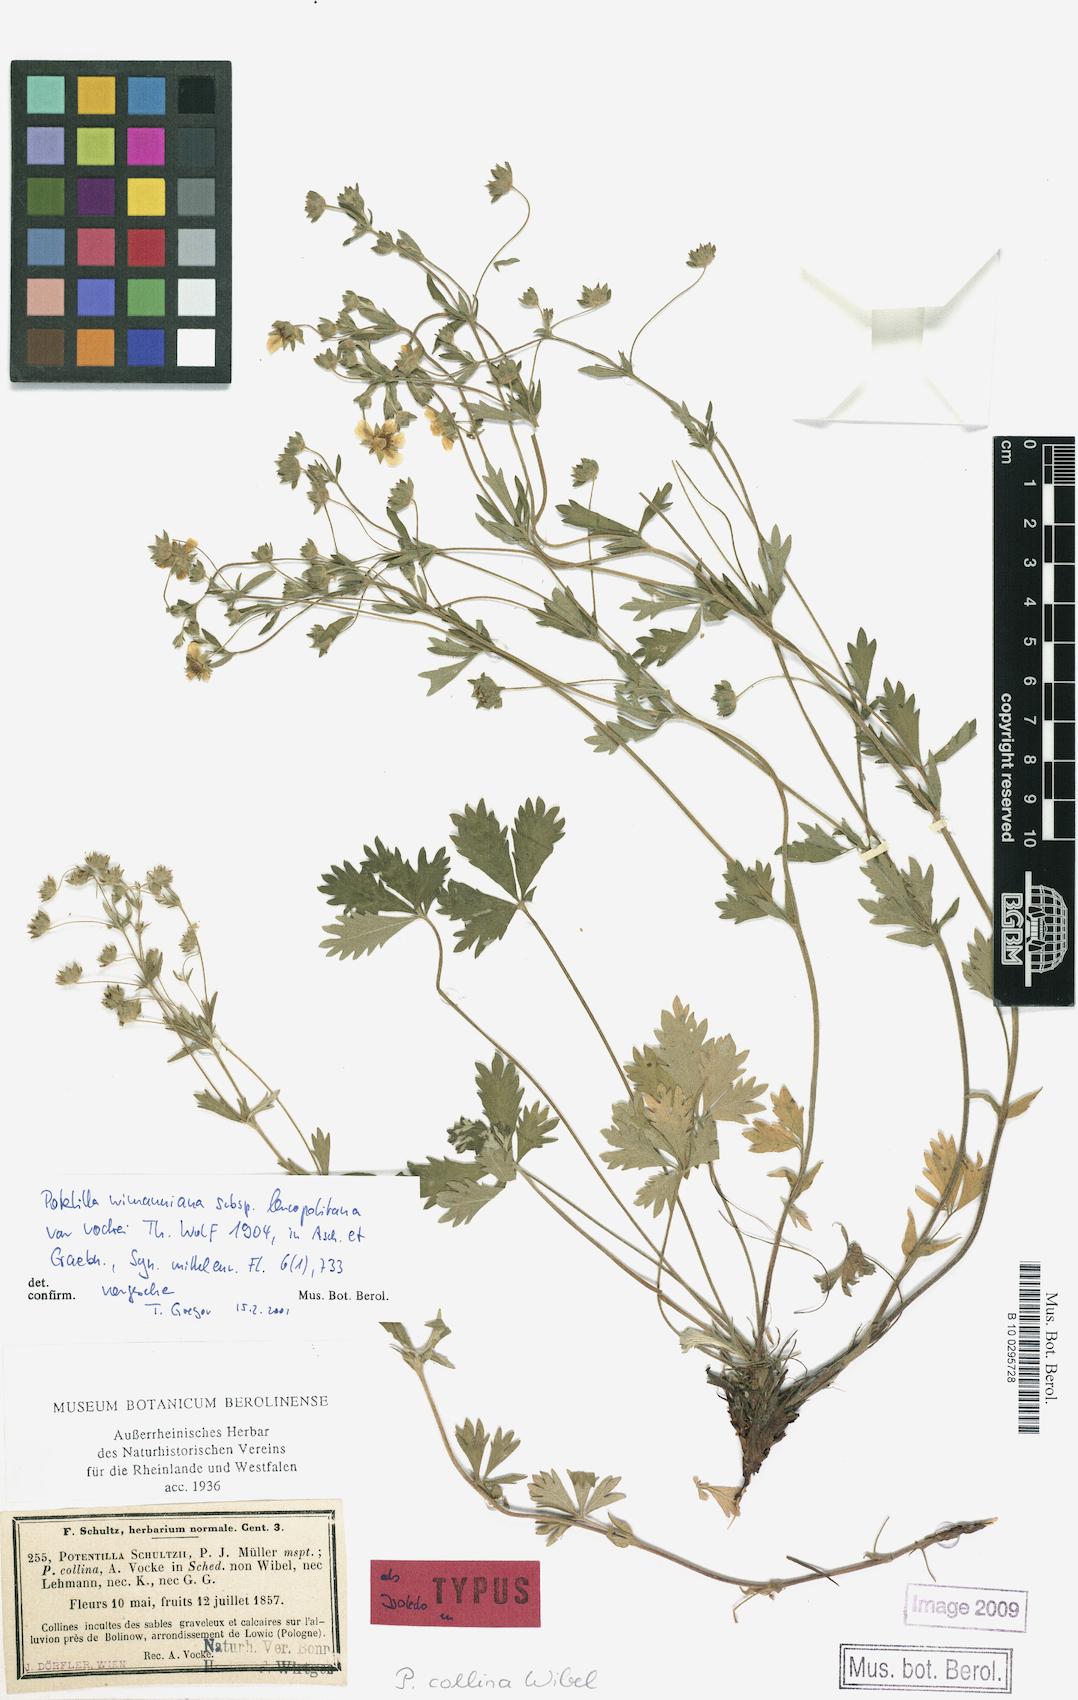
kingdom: Plantae
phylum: Tracheophyta
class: Magnoliopsida
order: Rosales
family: Rosaceae
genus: Potentilla
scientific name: Potentilla
